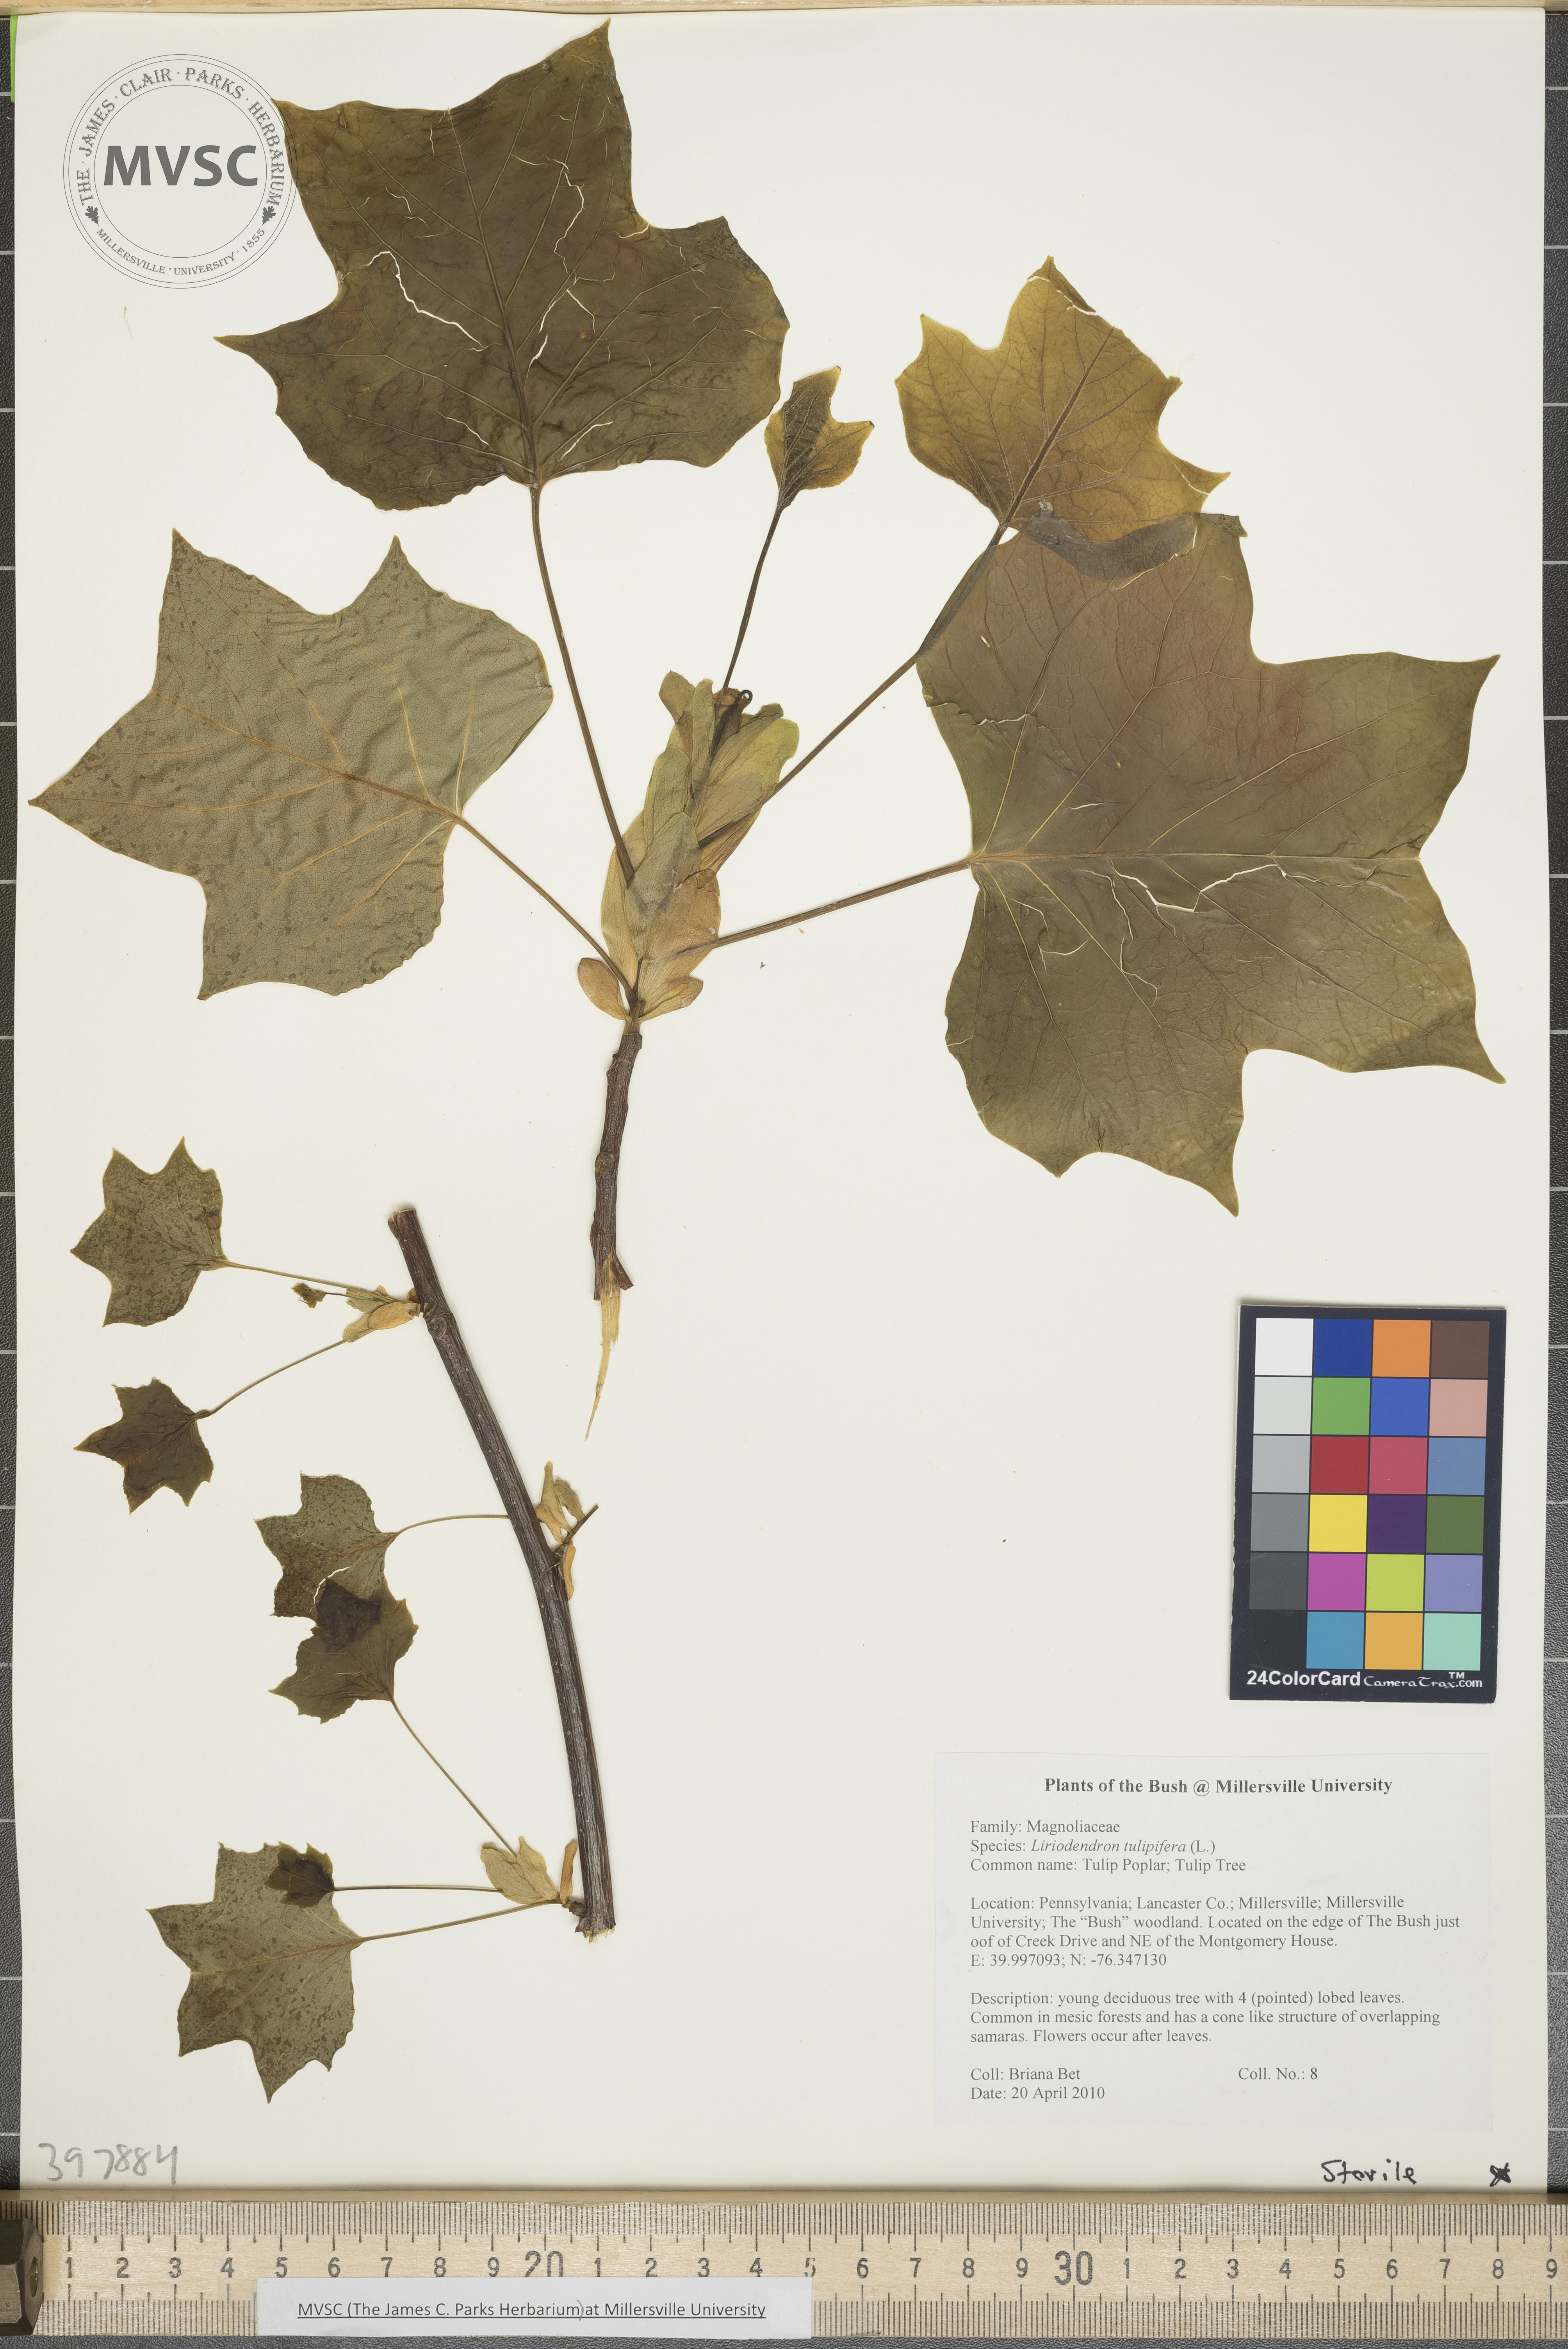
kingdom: Plantae
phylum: Tracheophyta
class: Magnoliopsida
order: Magnoliales
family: Magnoliaceae
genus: Liriodendron
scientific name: Liriodendron tulipifera
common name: Tuliptree
